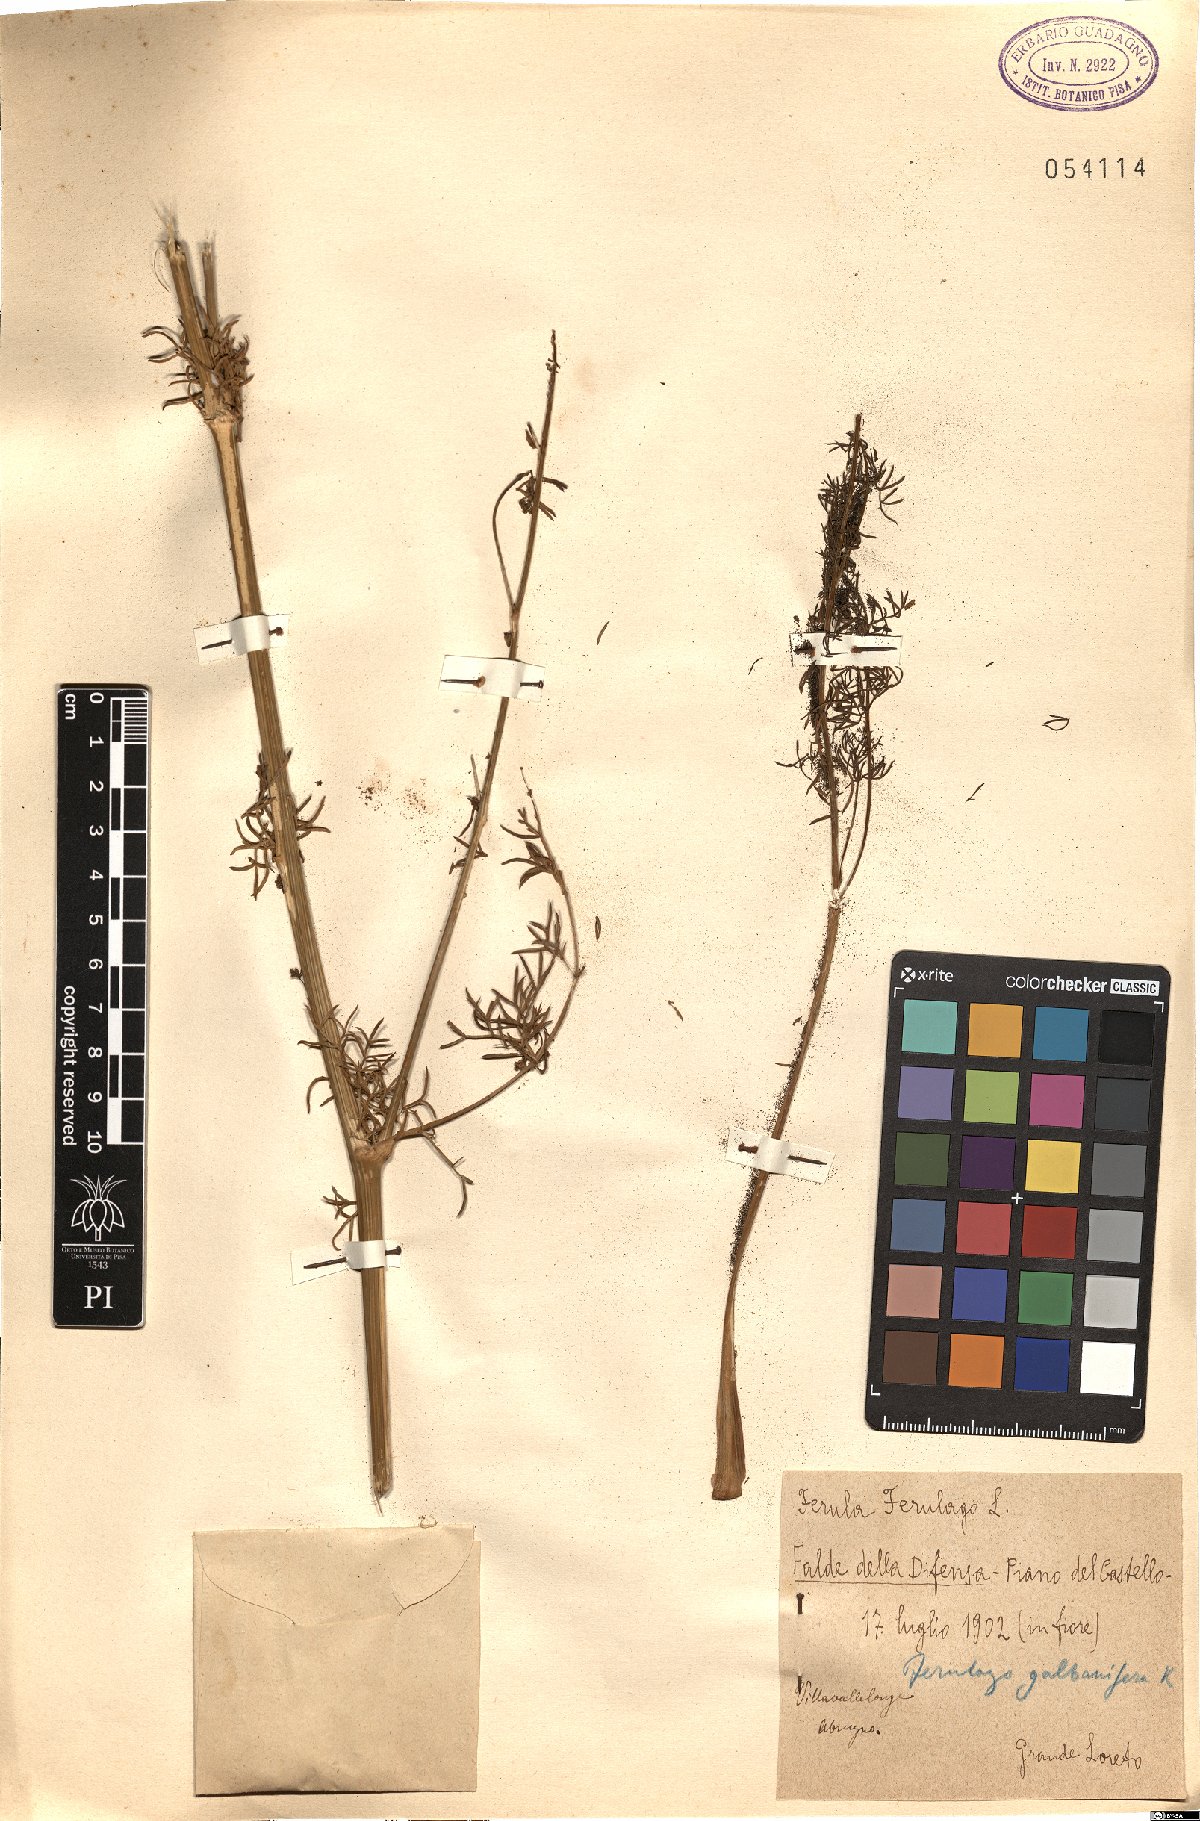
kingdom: Plantae
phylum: Tracheophyta
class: Magnoliopsida
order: Apiales
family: Apiaceae
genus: Ferula
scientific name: Ferula communis
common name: Giant fennel
